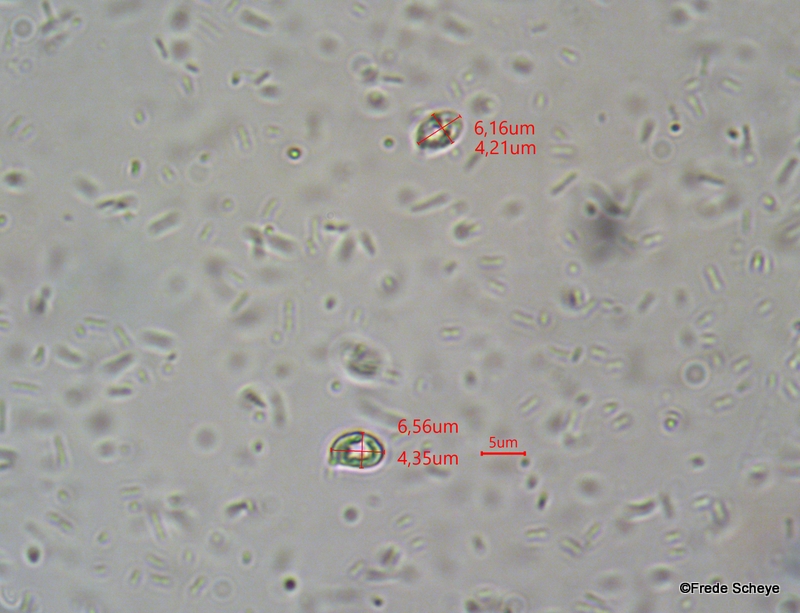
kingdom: Fungi
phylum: Basidiomycota
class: Agaricomycetes
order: Agaricales
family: Hygrophoraceae
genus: Gliophorus
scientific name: Gliophorus irrigatus
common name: slimet vokshat
